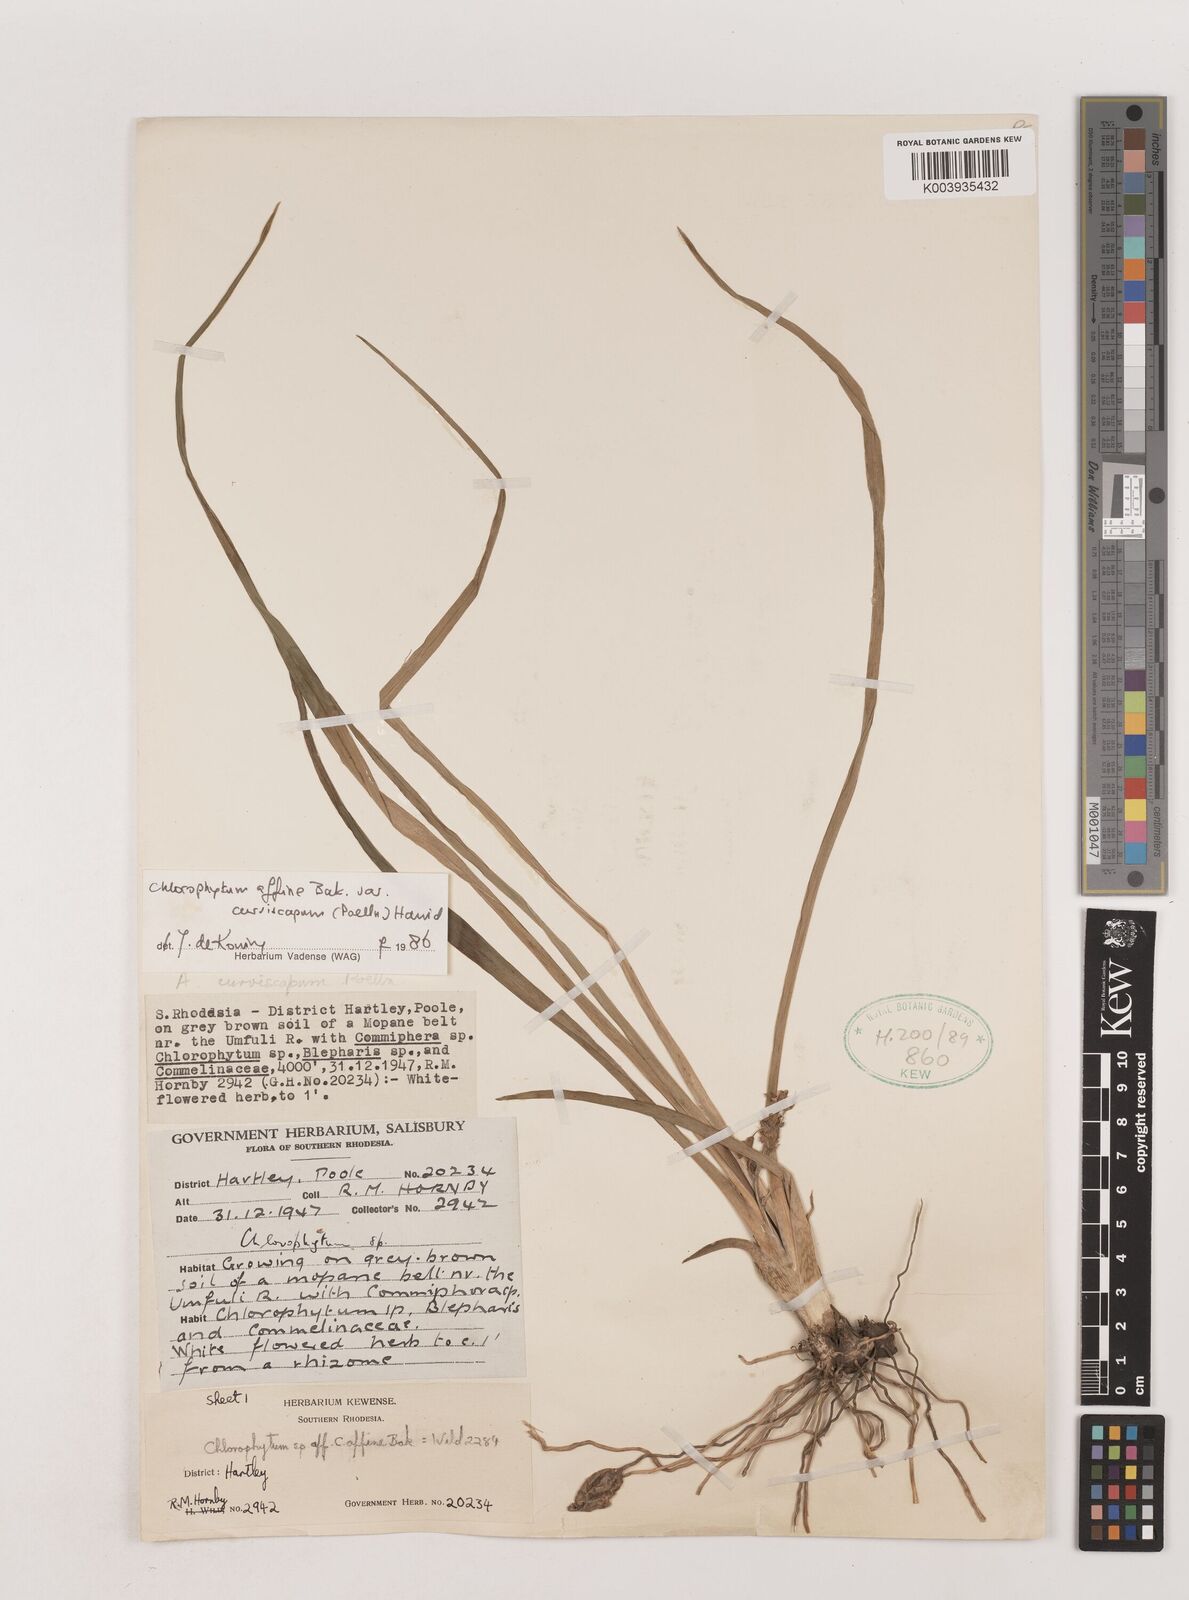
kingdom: Plantae
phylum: Tracheophyta
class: Liliopsida
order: Asparagales
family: Asparagaceae
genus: Chlorophytum
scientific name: Chlorophytum tordense
